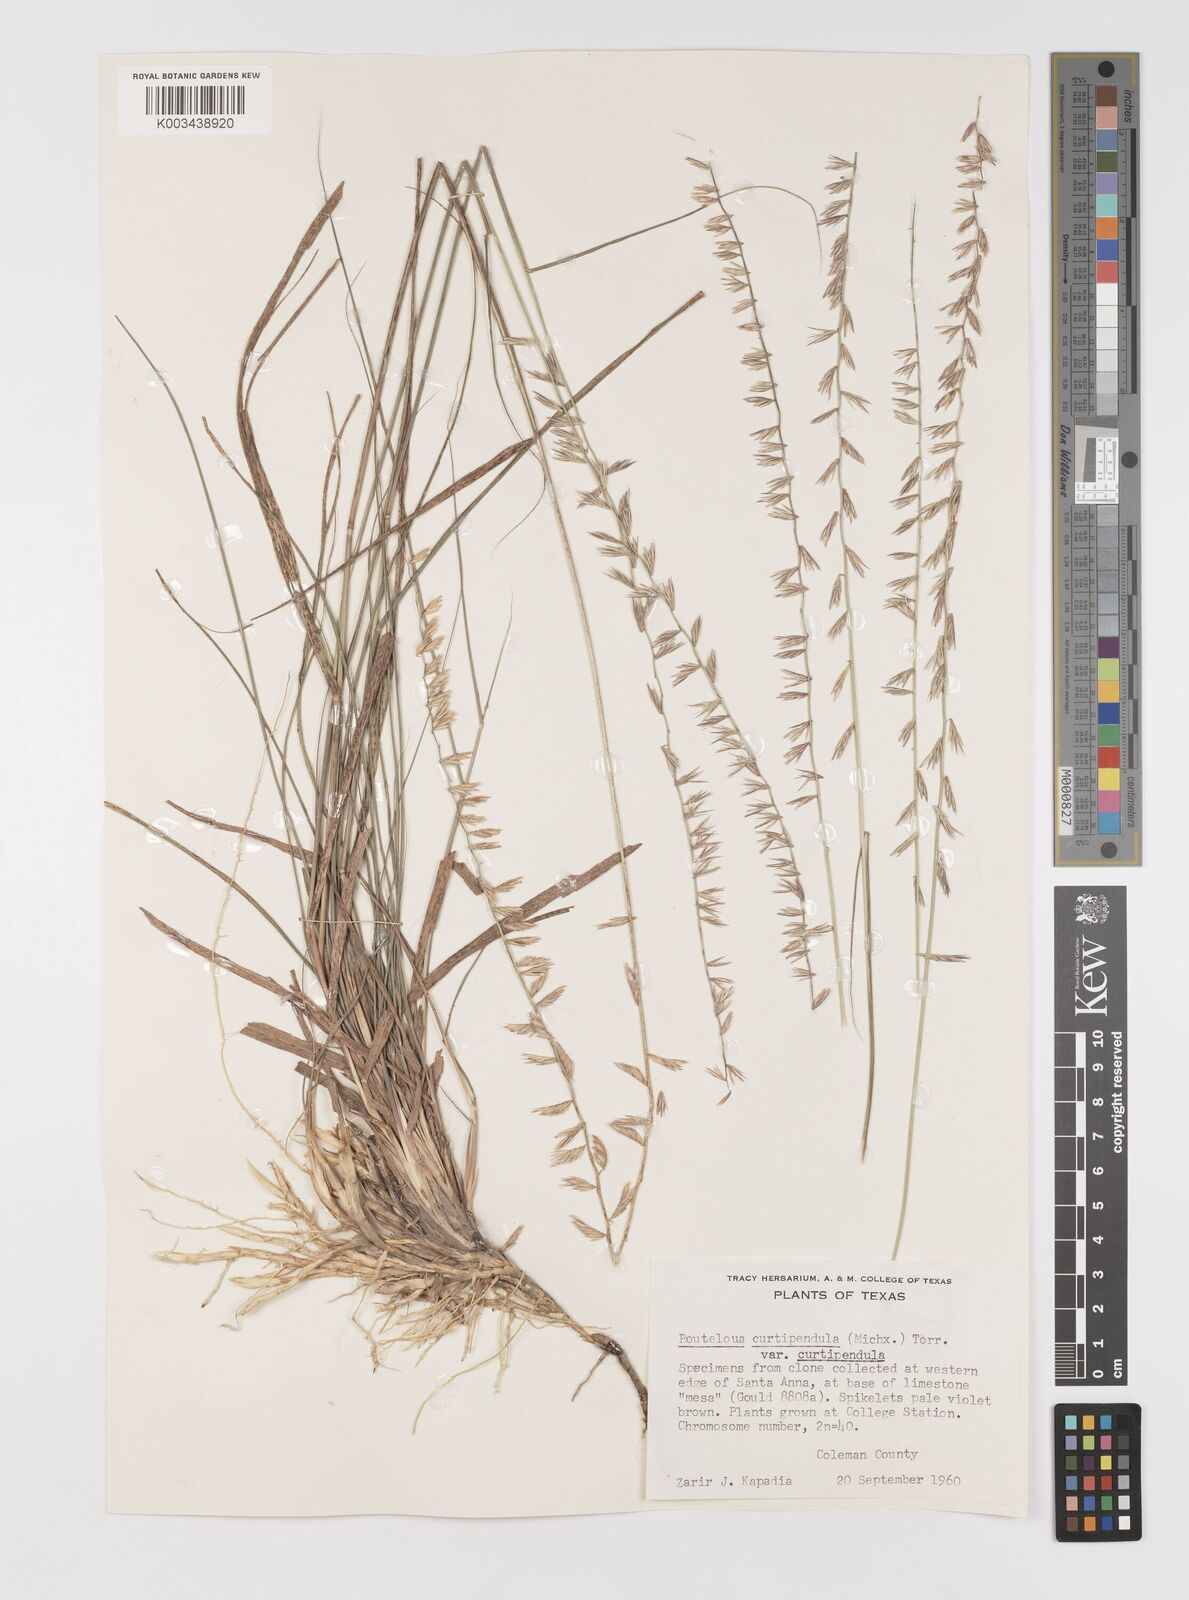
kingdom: Plantae
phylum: Tracheophyta
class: Liliopsida
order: Poales
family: Poaceae
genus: Bouteloua
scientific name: Bouteloua curtipendula
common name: Side-oats grama
